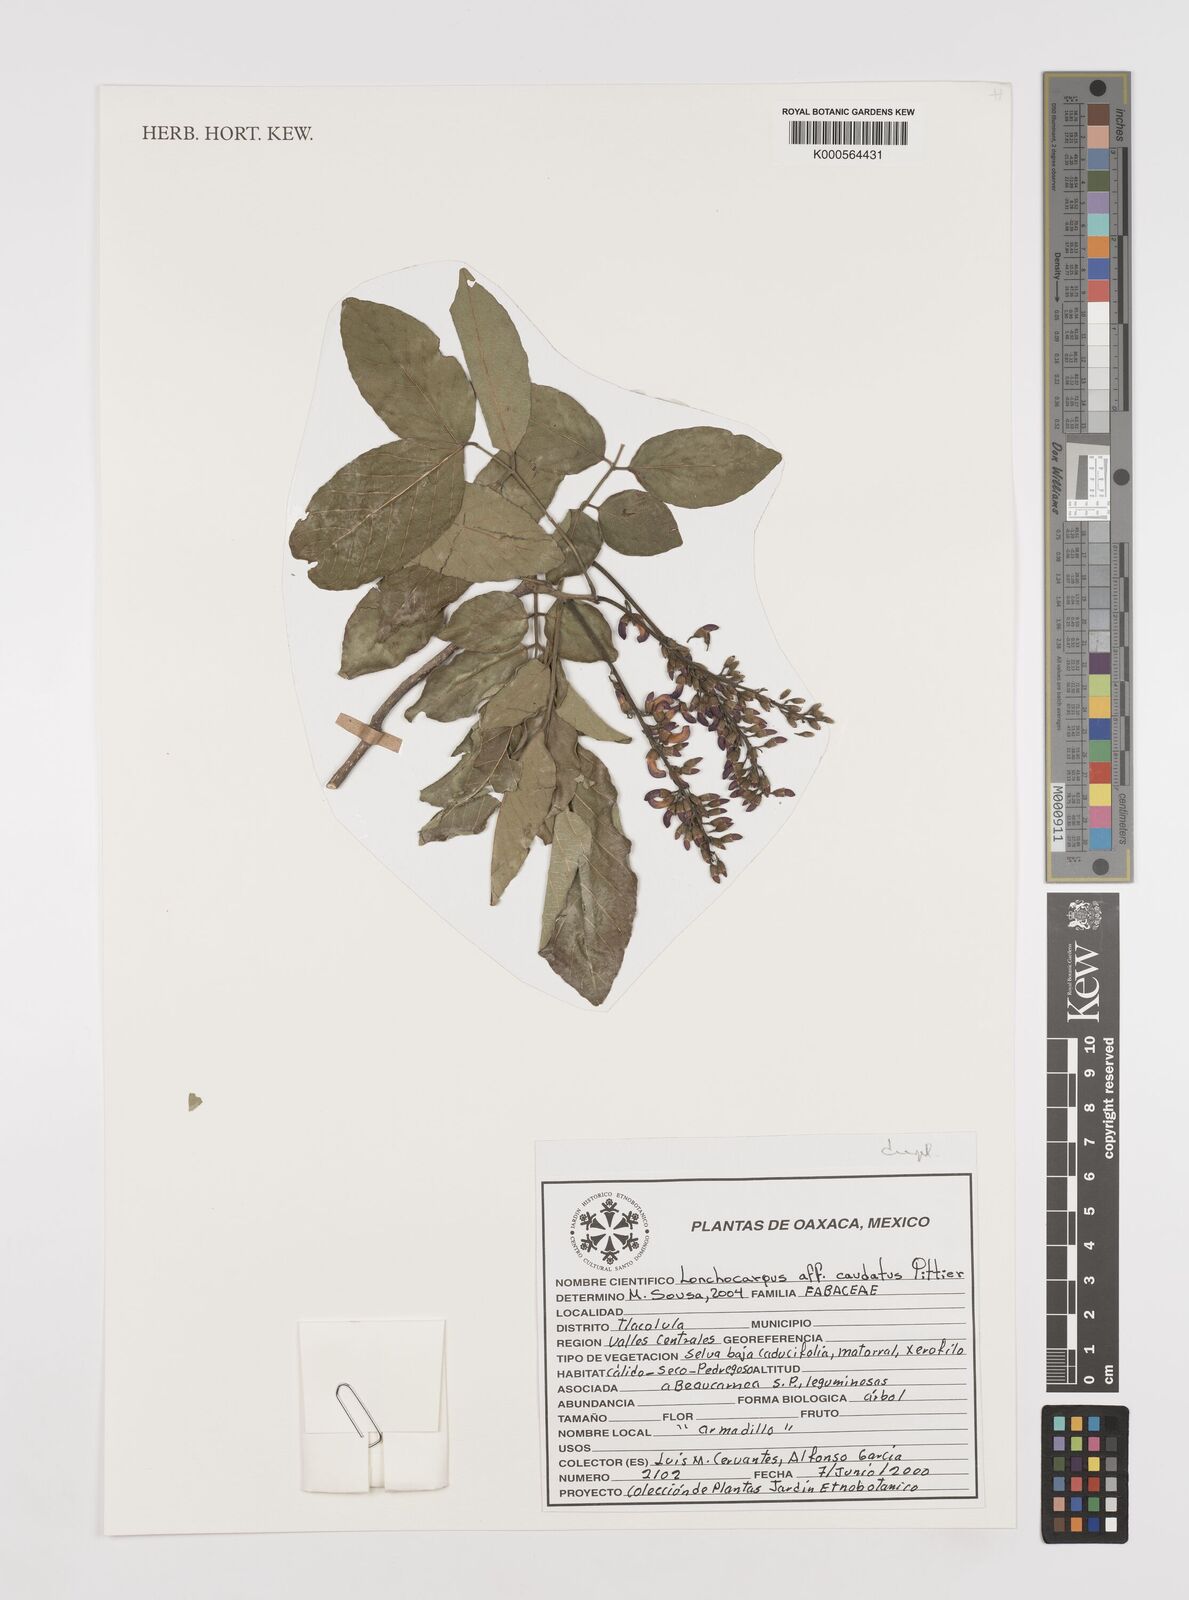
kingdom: Plantae
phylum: Tracheophyta
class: Magnoliopsida
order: Fabales
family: Fabaceae
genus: Lonchocarpus
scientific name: Lonchocarpus caudatus
